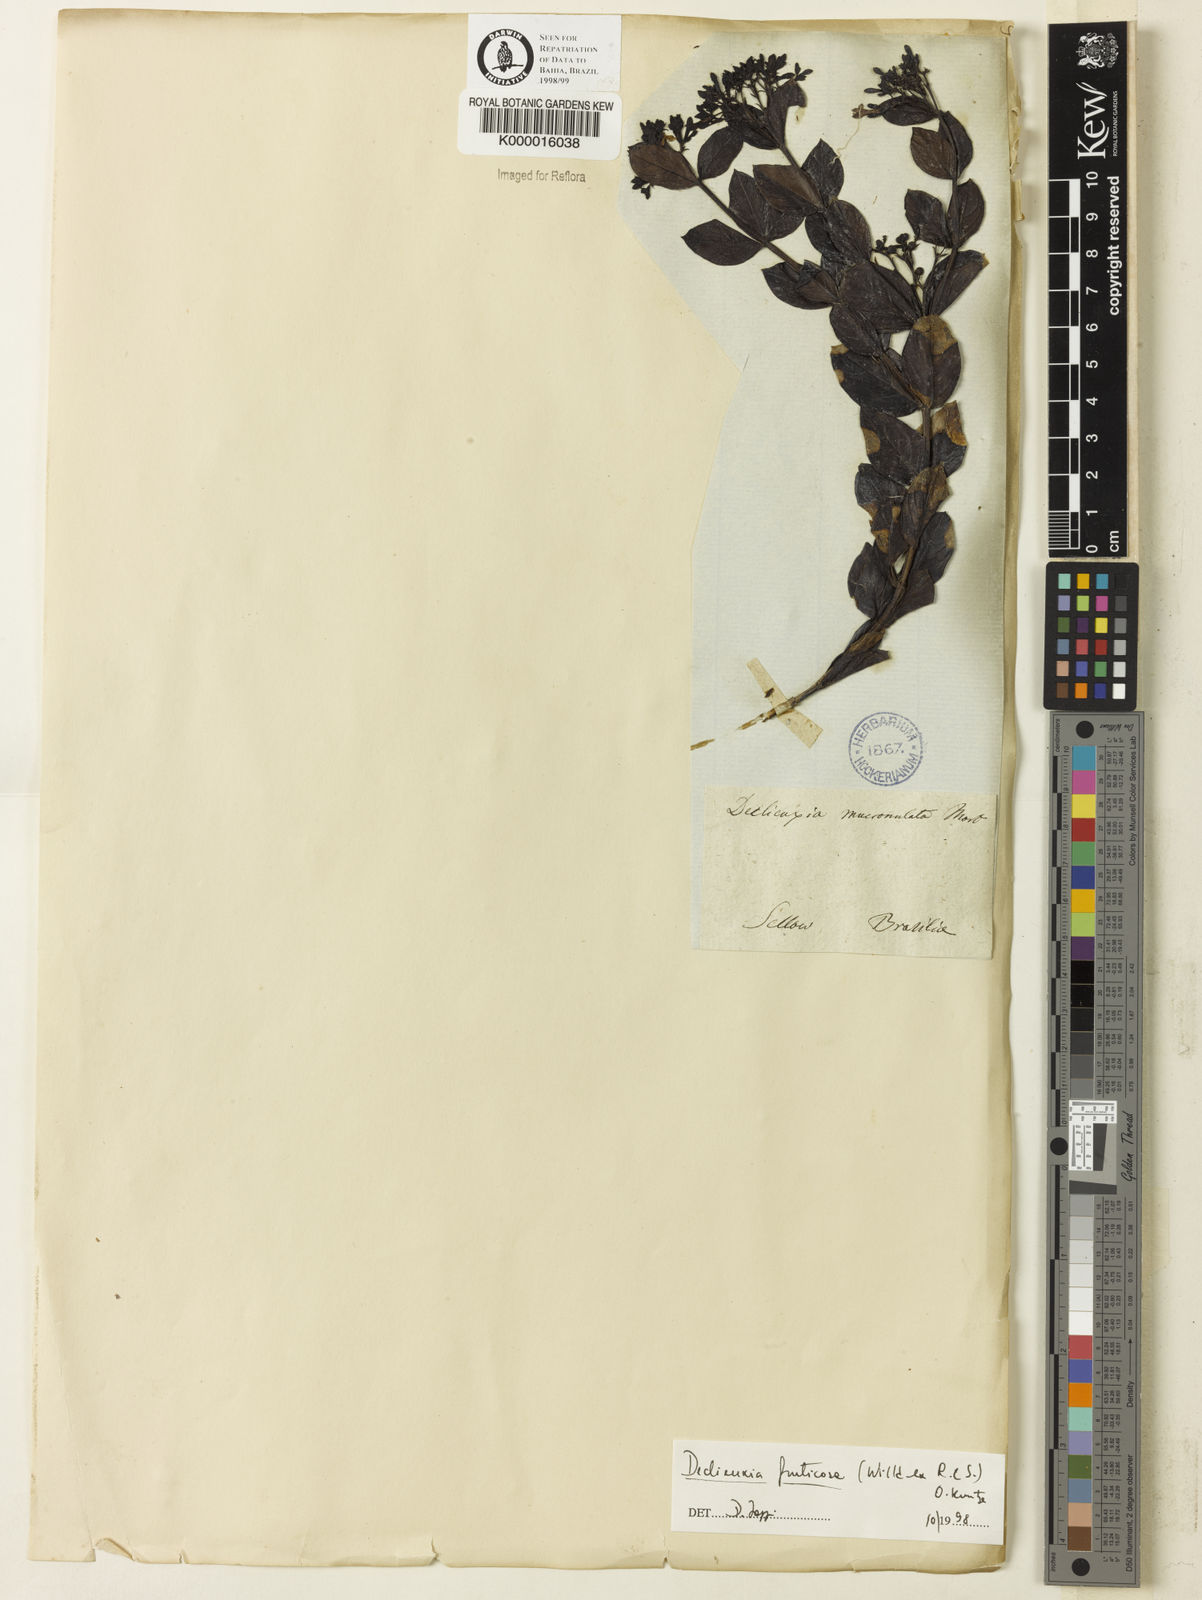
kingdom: Plantae
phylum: Tracheophyta
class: Magnoliopsida
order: Gentianales
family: Rubiaceae
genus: Declieuxia
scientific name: Declieuxia fruticosa
